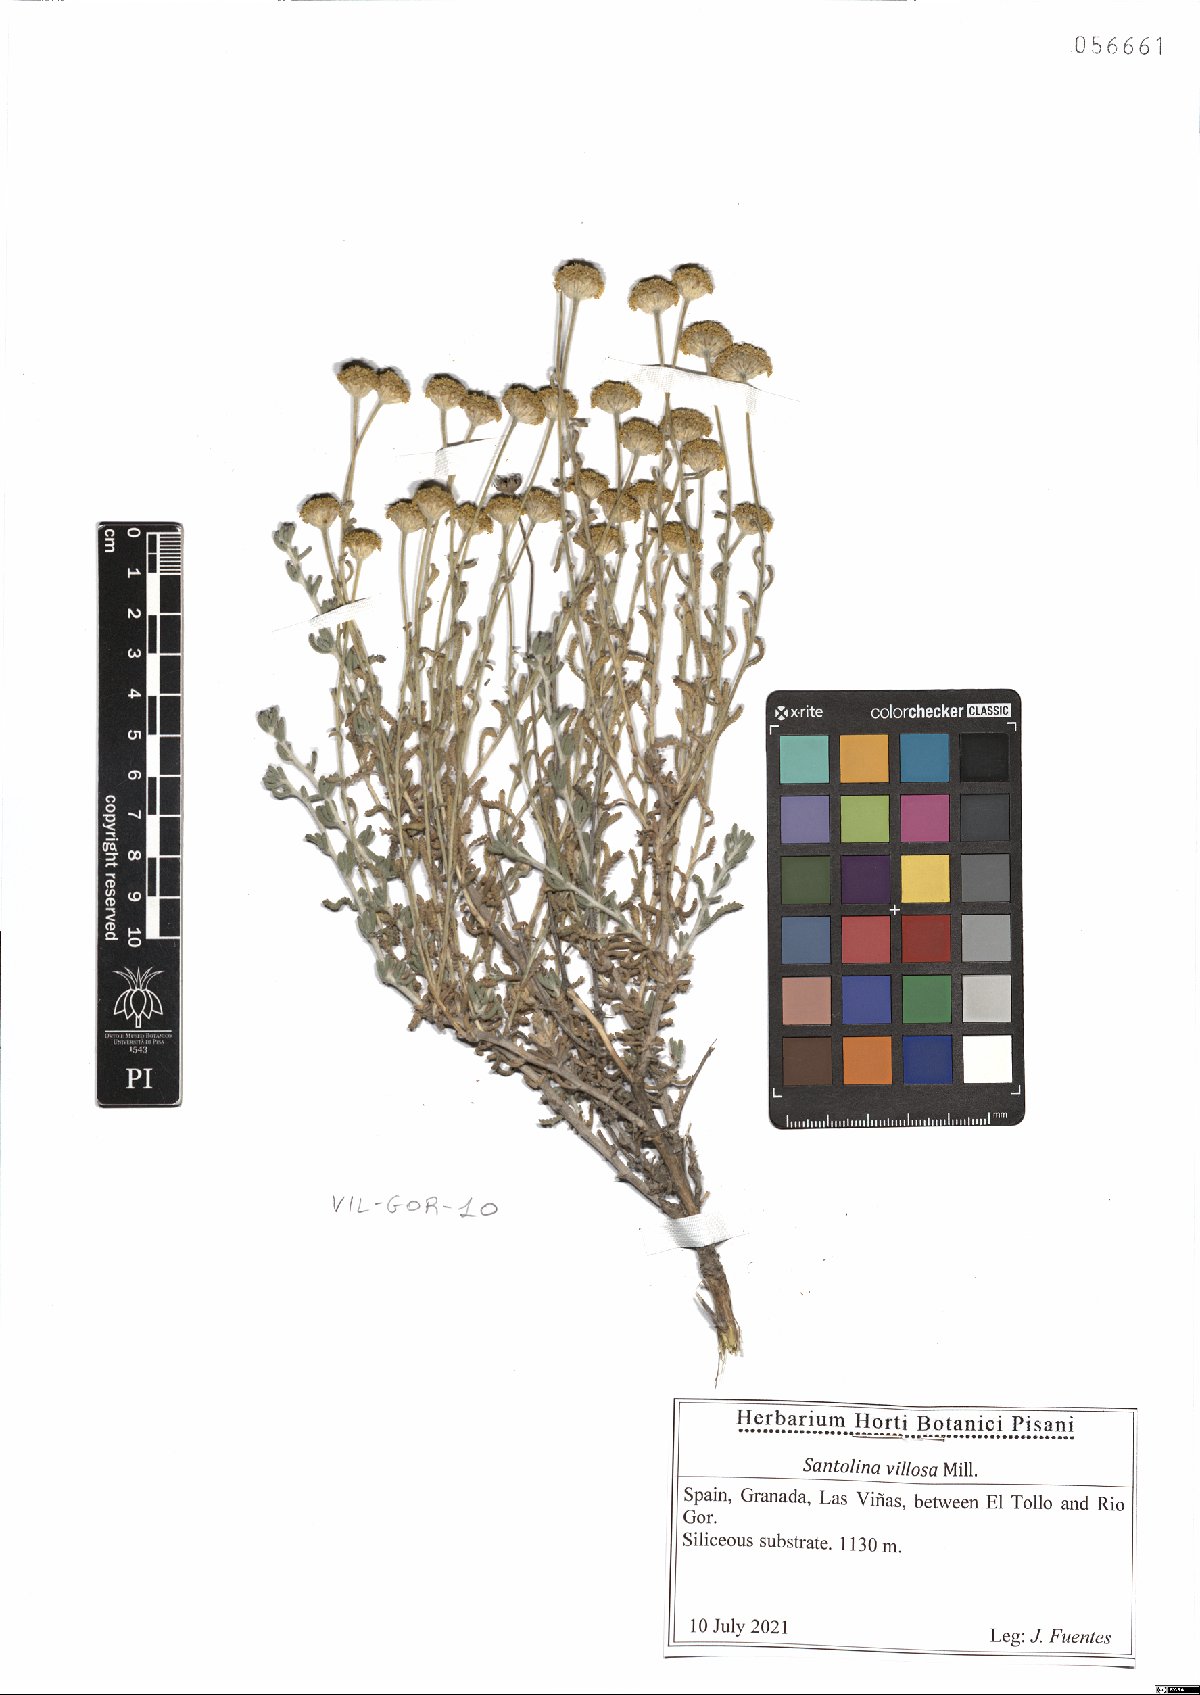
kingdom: Plantae
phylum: Tracheophyta
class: Magnoliopsida
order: Asterales
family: Asteraceae
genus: Santolina
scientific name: Santolina chamaecyparissus
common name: Lavender-cotton
